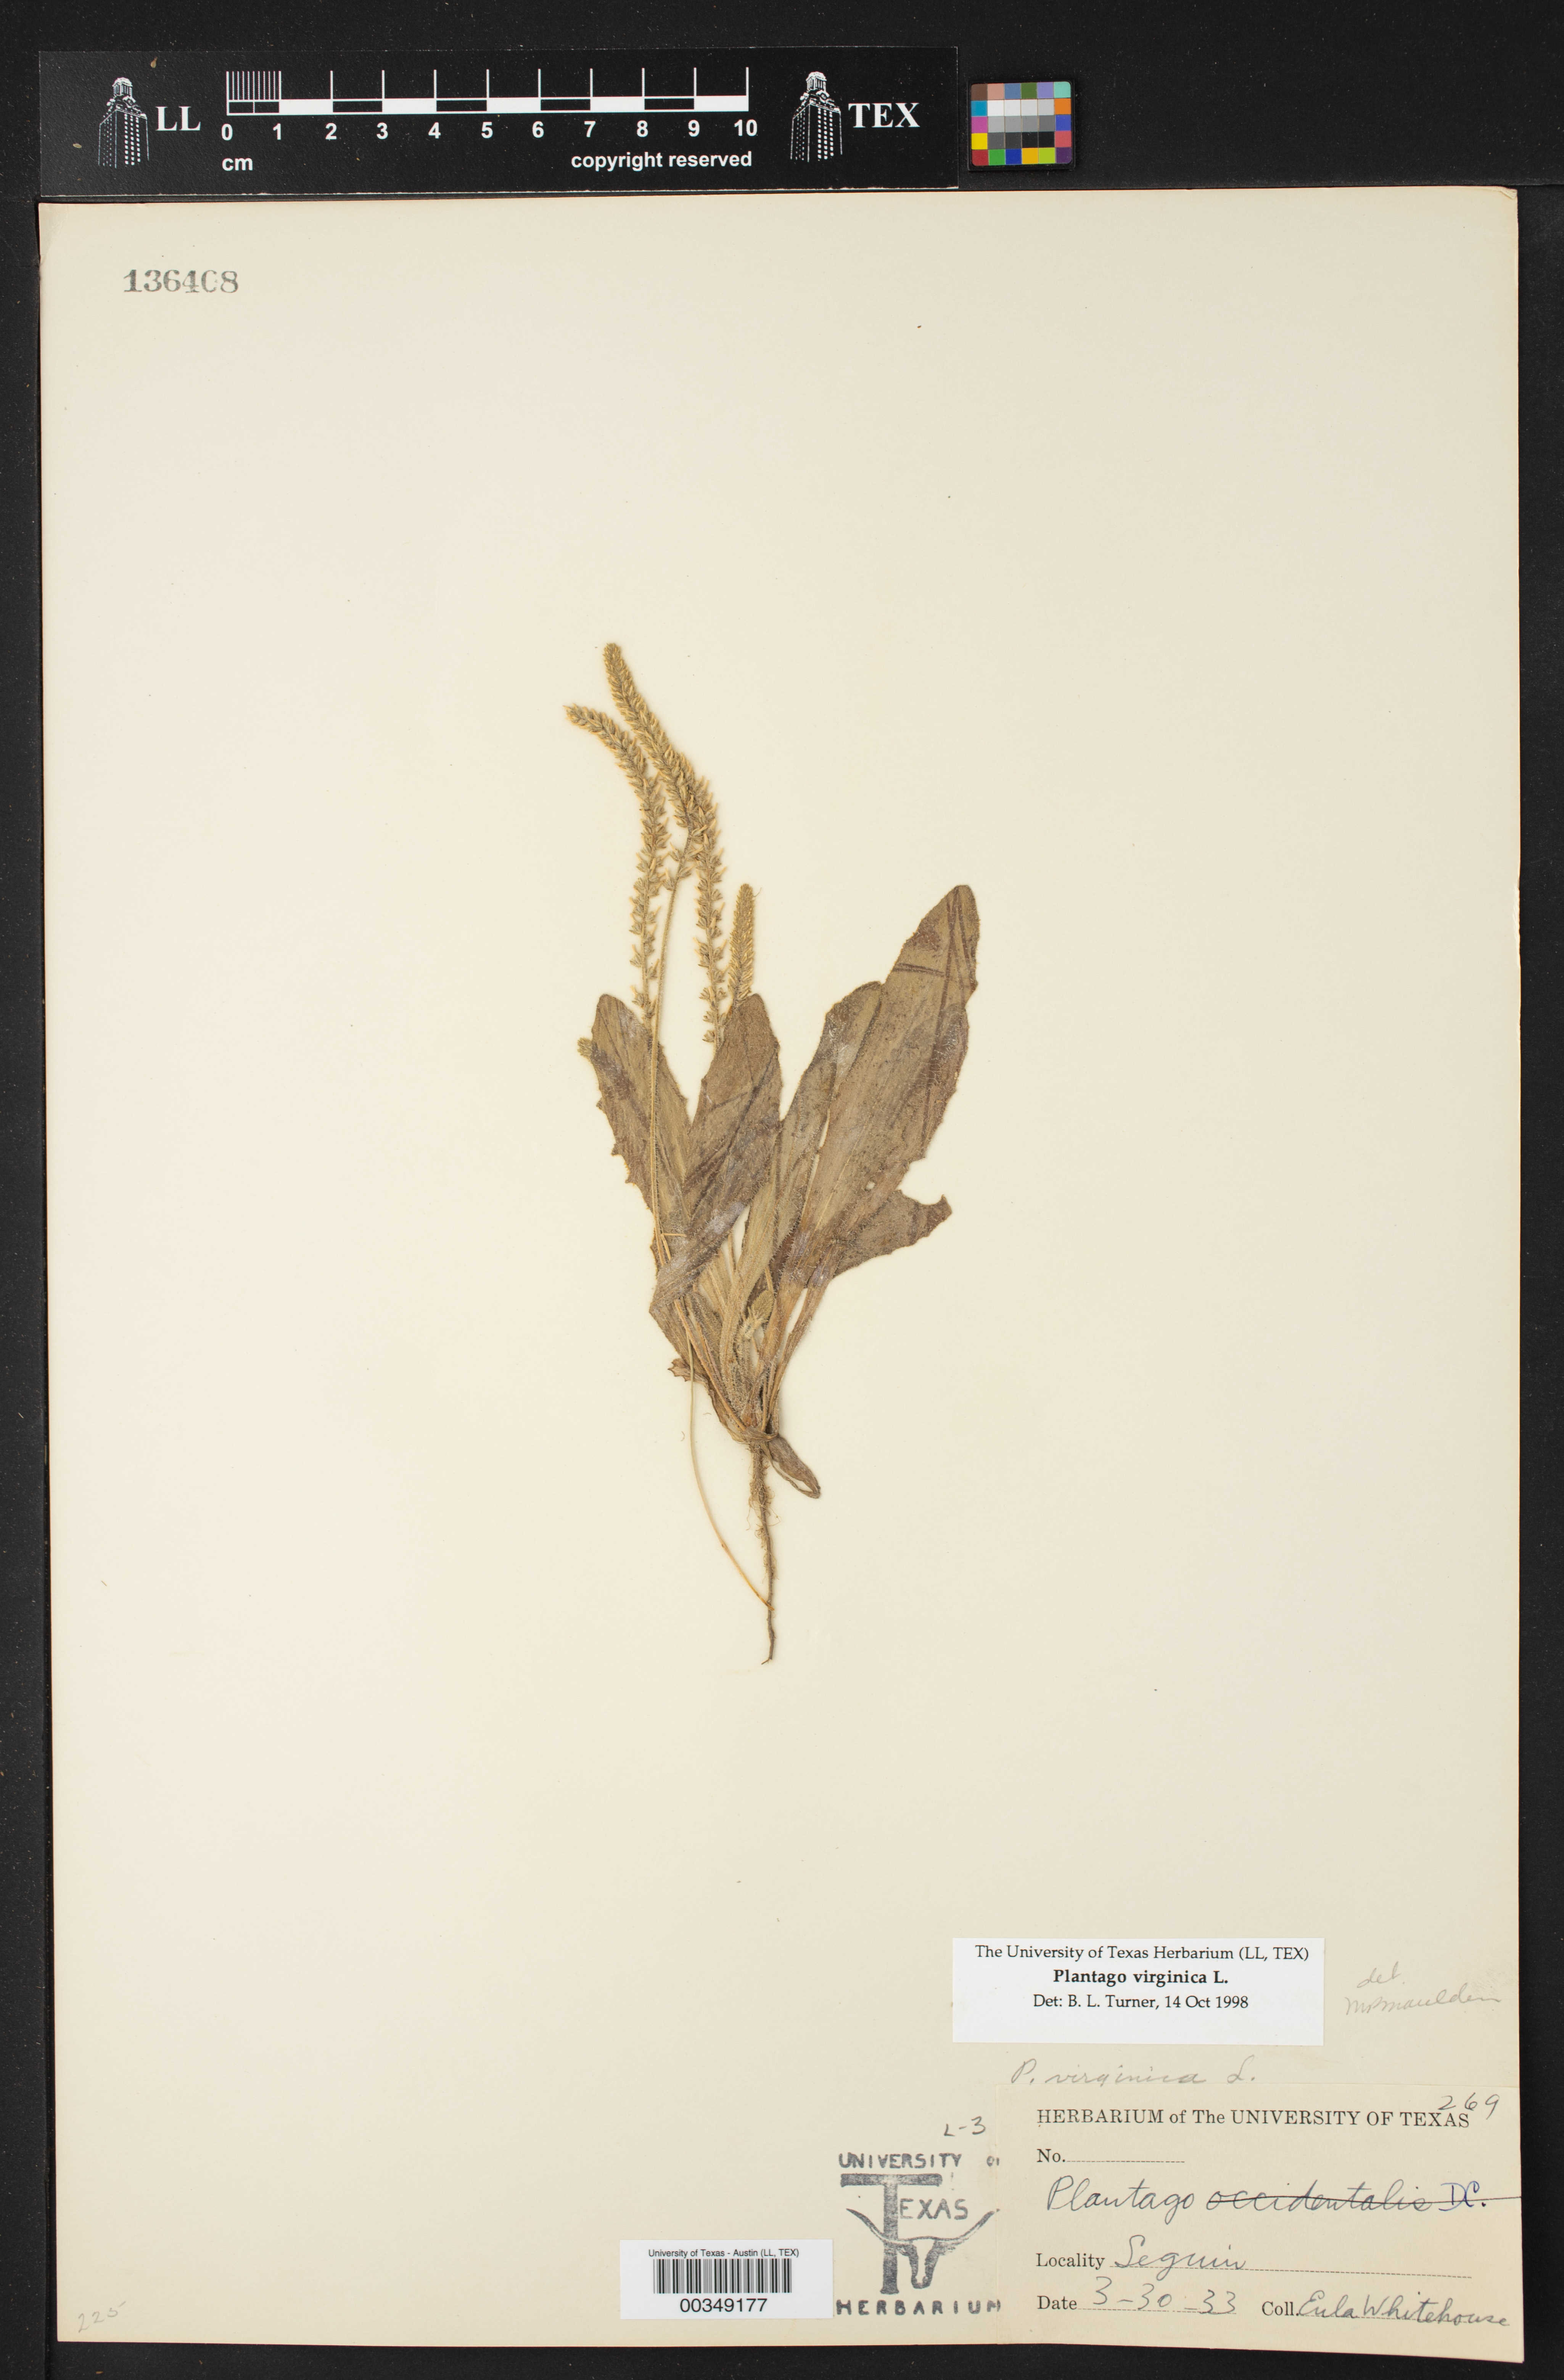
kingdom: Plantae
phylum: Tracheophyta
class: Magnoliopsida
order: Lamiales
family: Plantaginaceae
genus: Plantago
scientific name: Plantago virginica
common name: Hoary plantain
